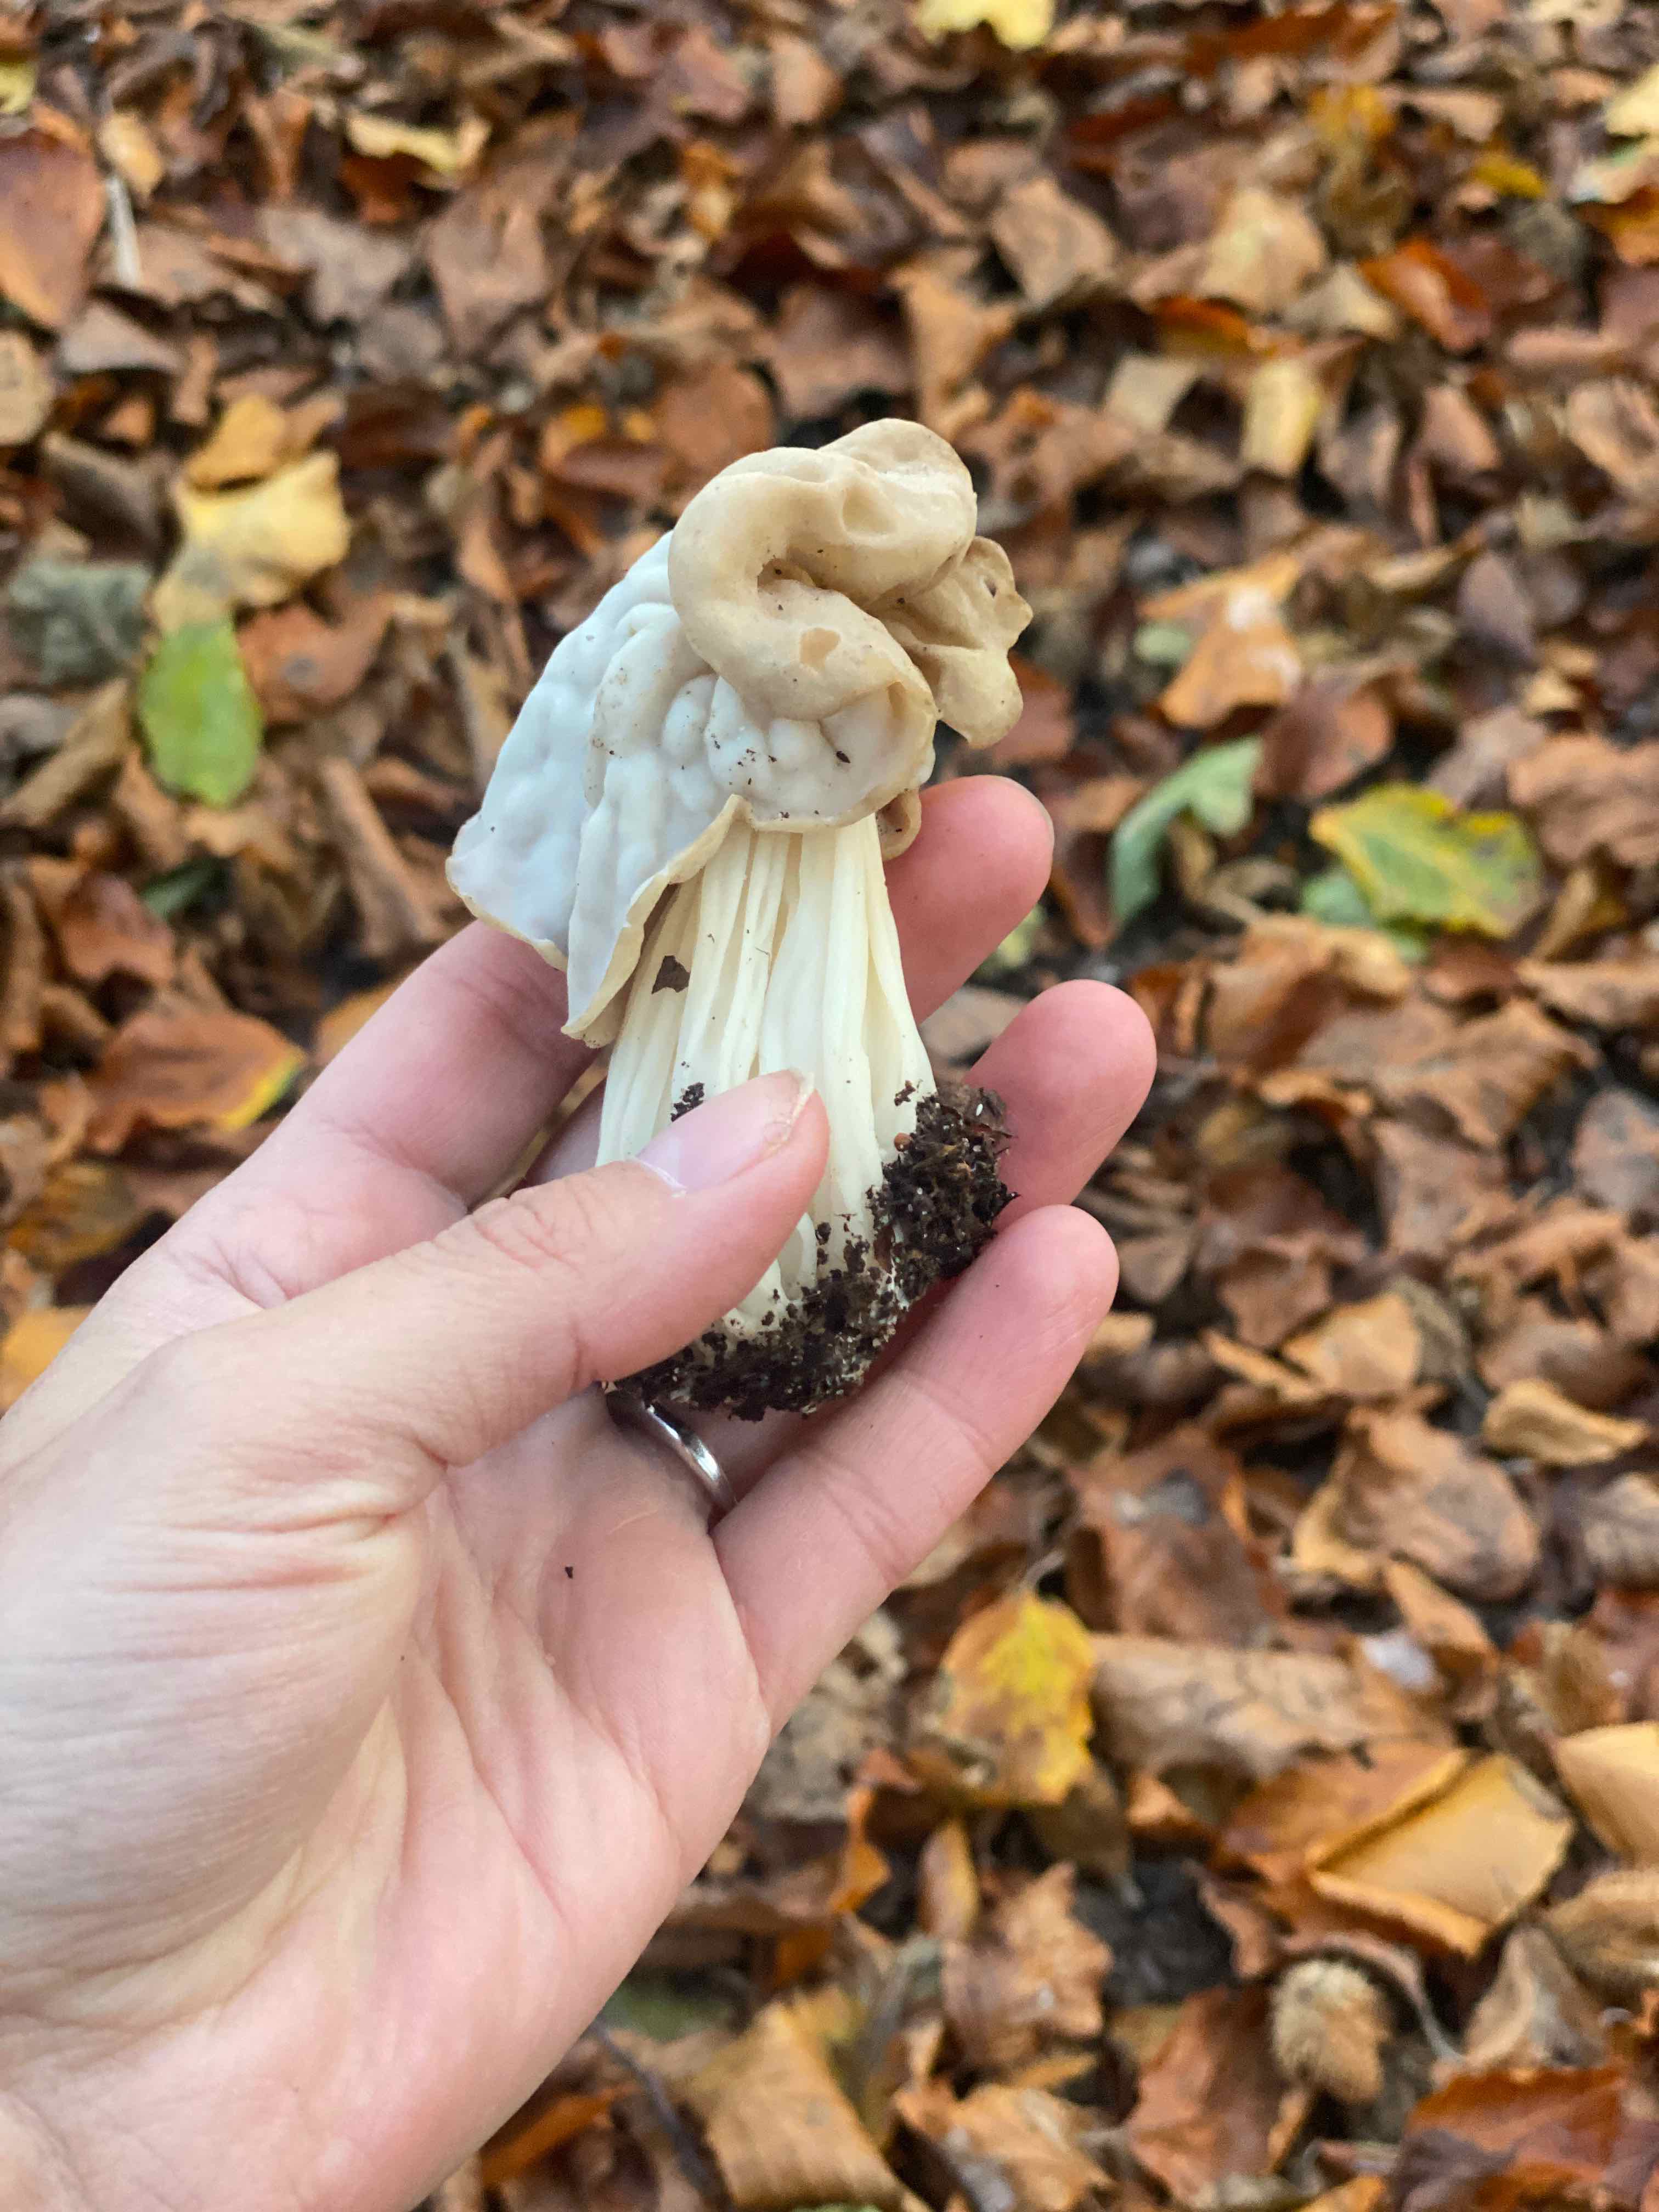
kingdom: Fungi
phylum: Ascomycota
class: Pezizomycetes
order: Pezizales
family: Helvellaceae
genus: Helvella
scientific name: Helvella crispa
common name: kruset foldhat
